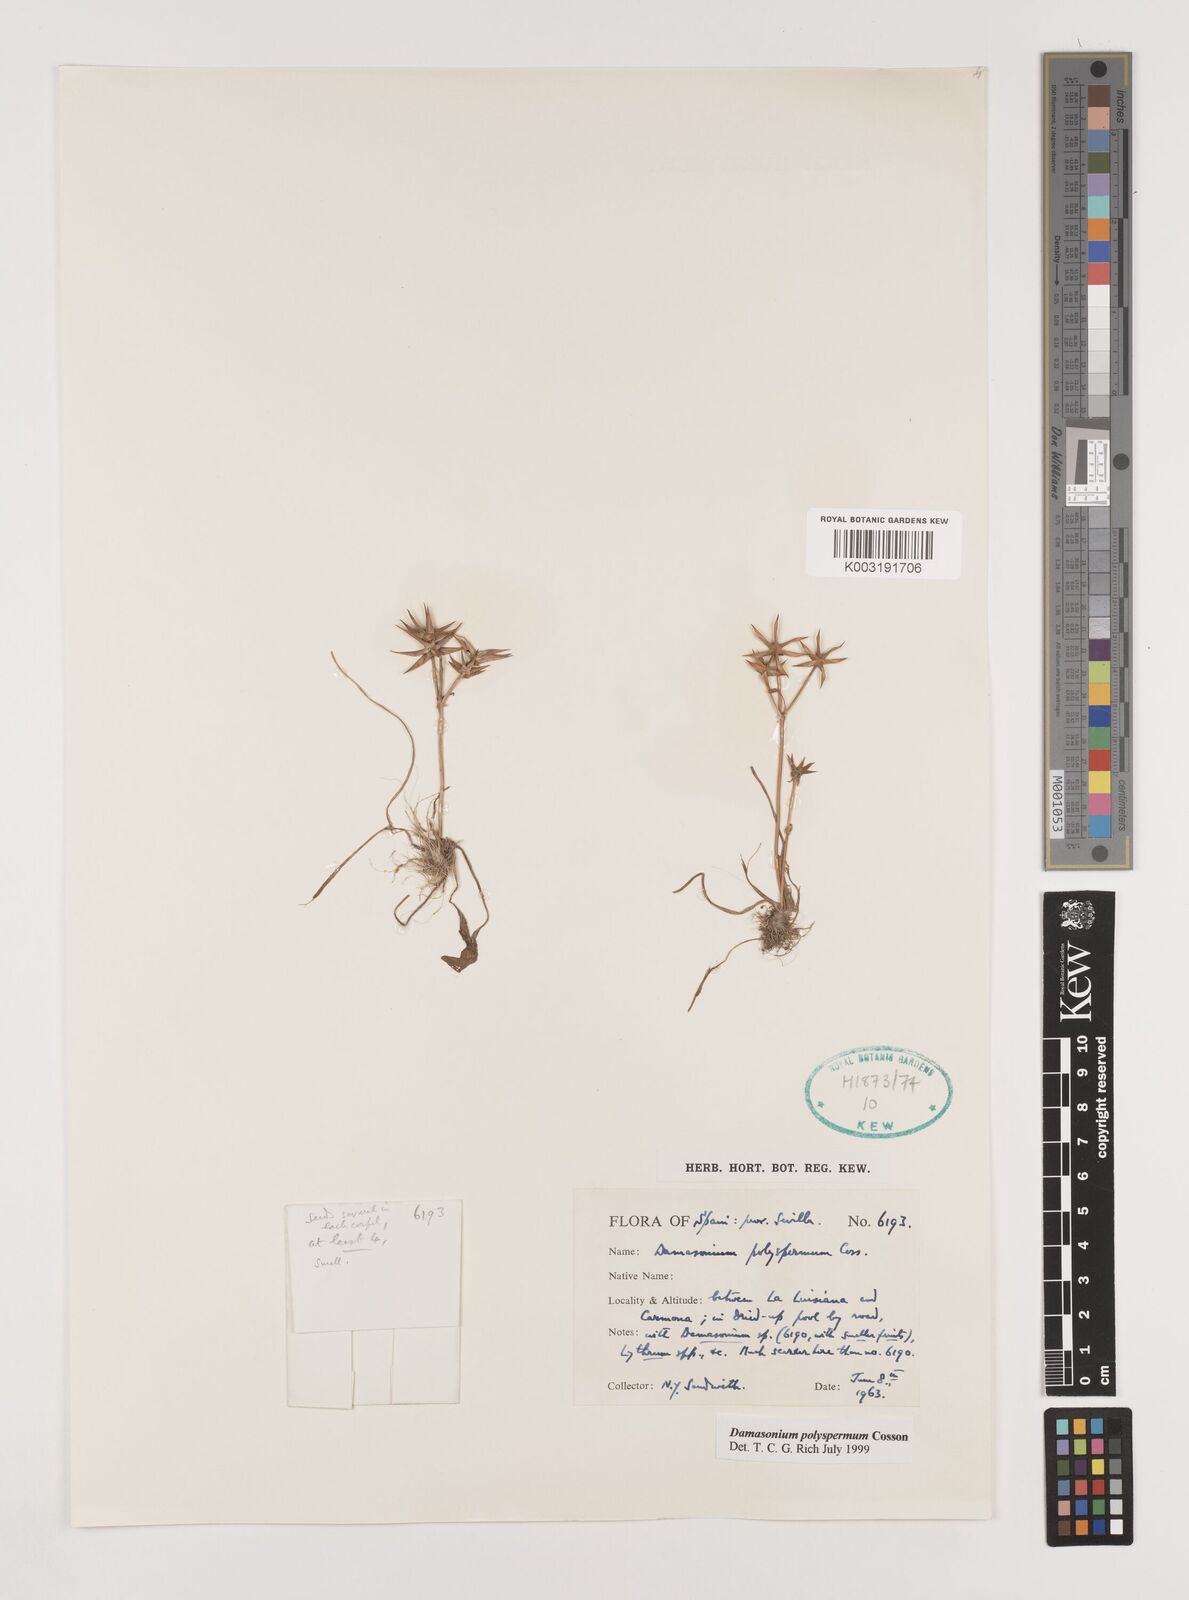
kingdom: Plantae
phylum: Tracheophyta
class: Liliopsida
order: Alismatales
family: Alismataceae
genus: Damasonium
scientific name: Damasonium polyspermum
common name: Starfruit
